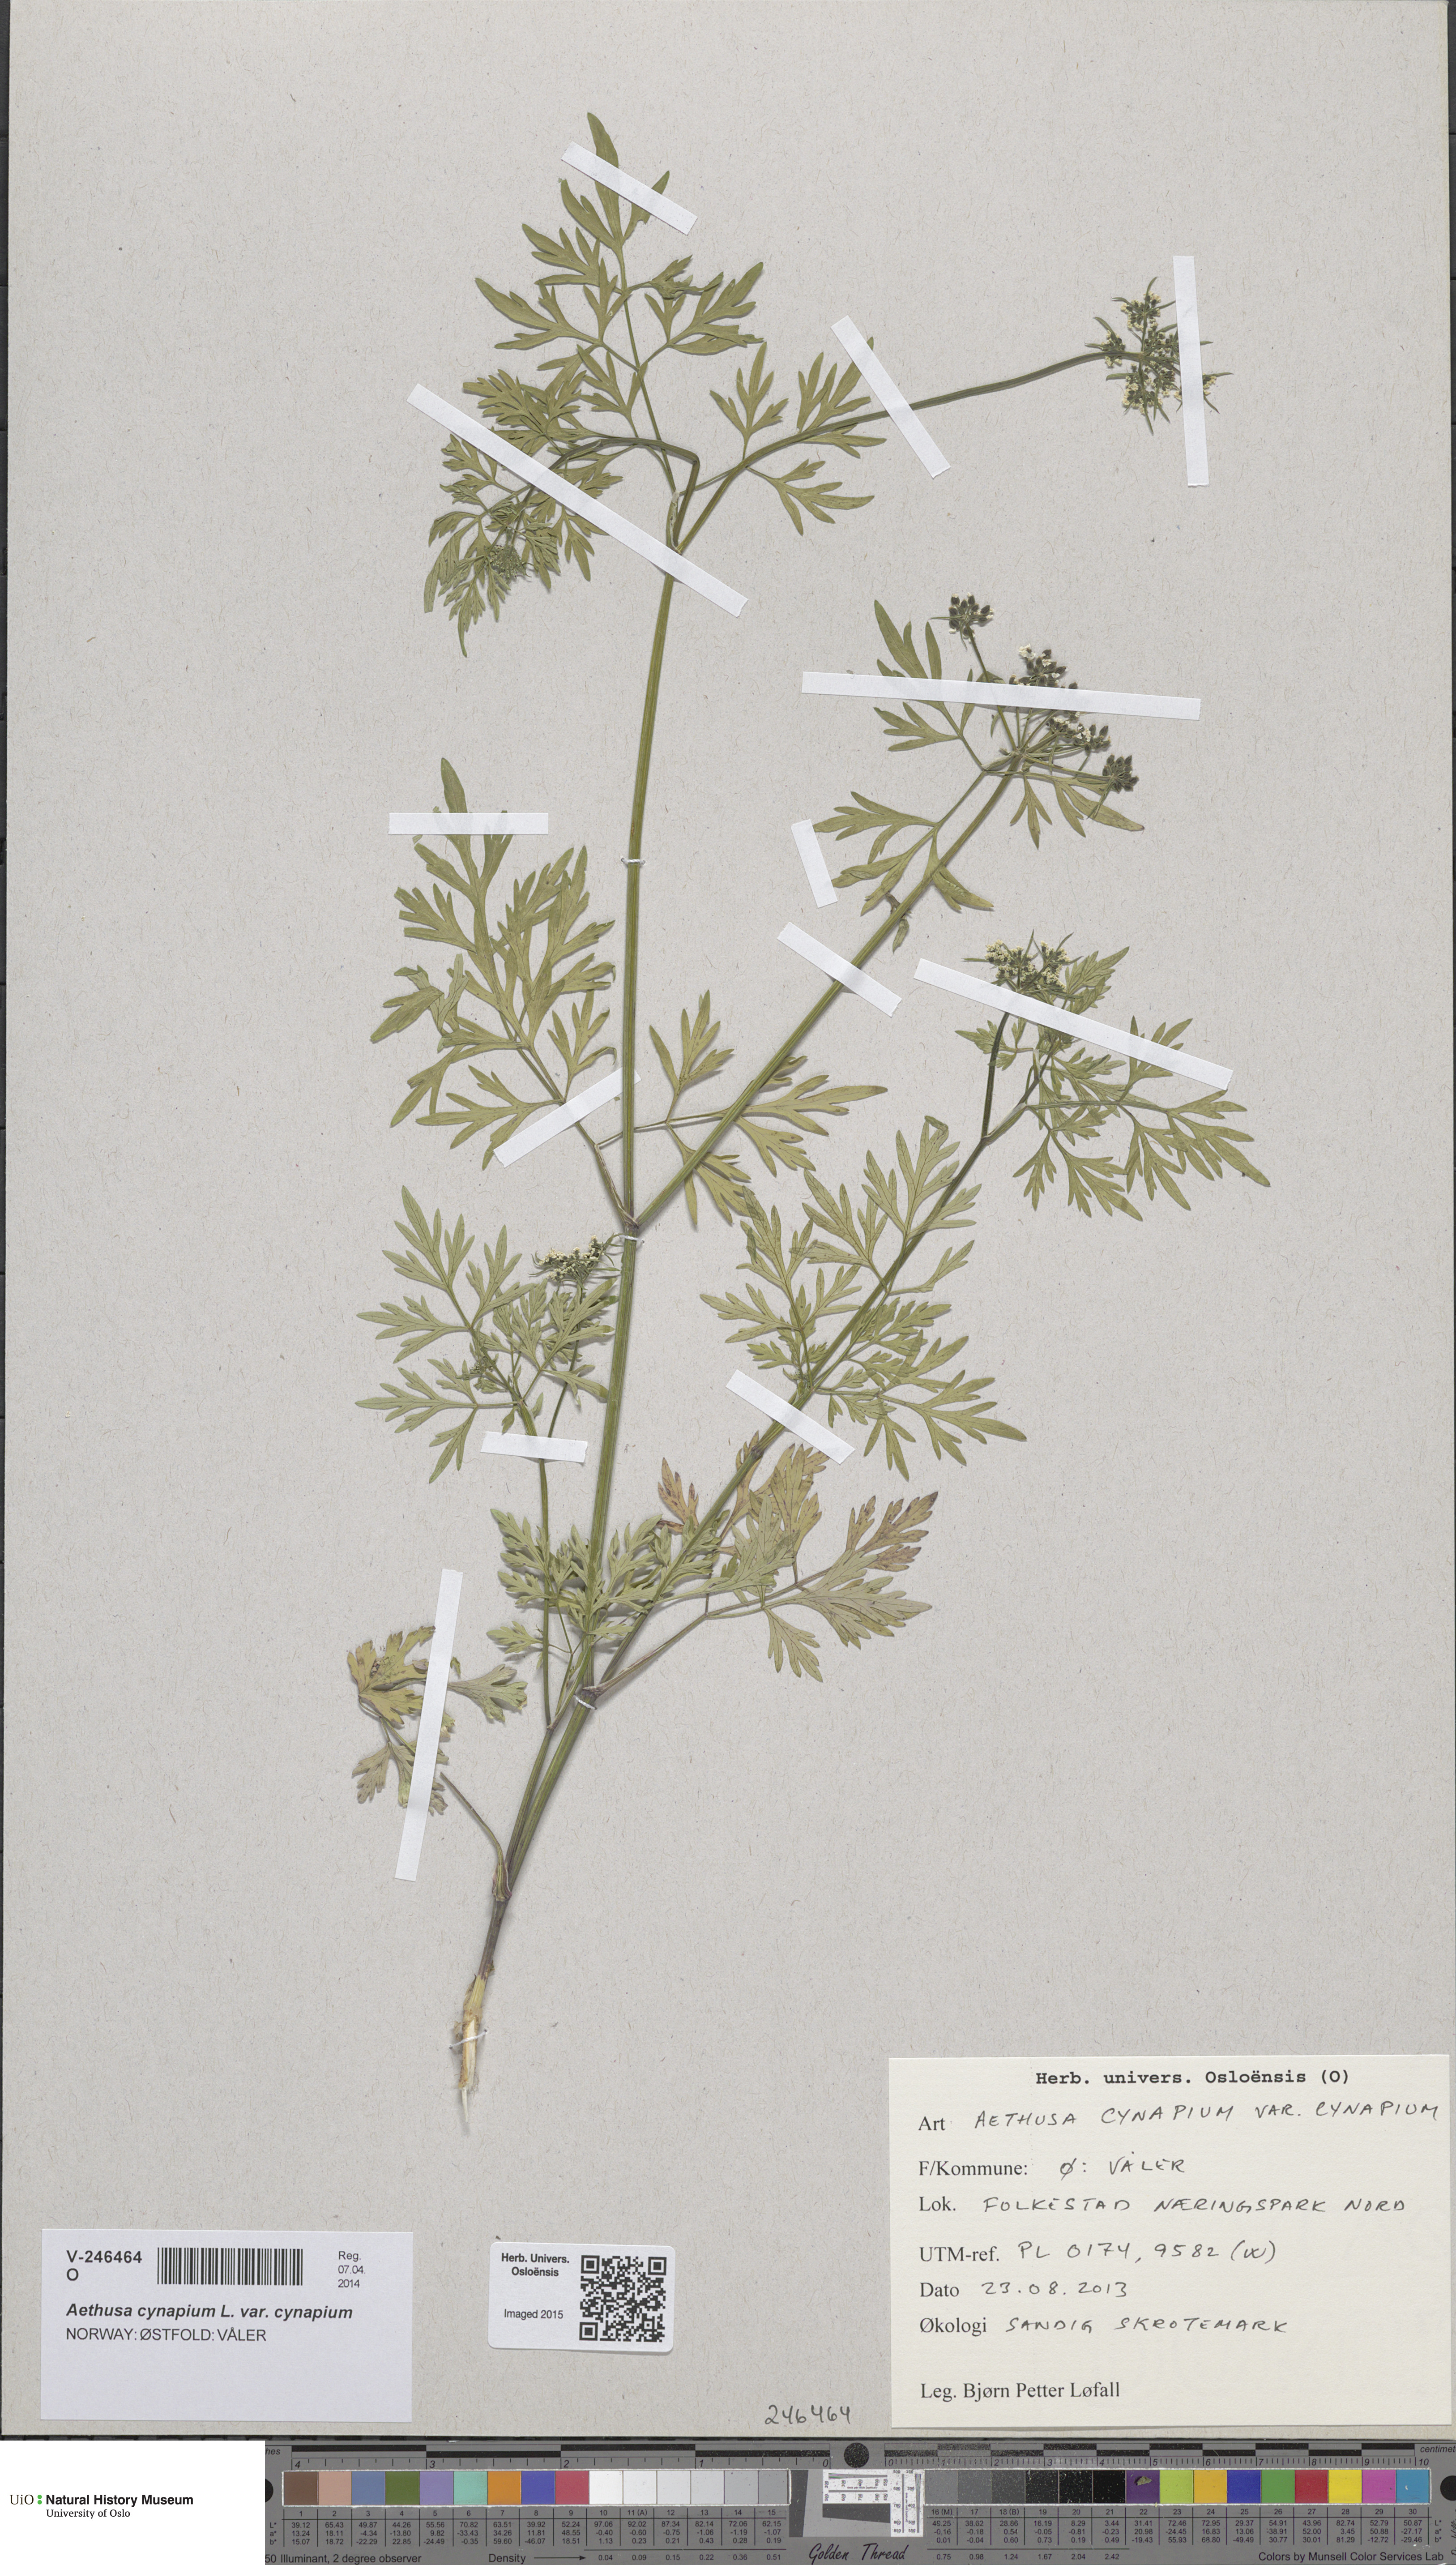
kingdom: Plantae
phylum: Tracheophyta
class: Magnoliopsida
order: Apiales
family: Apiaceae
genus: Aethusa
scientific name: Aethusa cynapium
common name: Fool's parsley
